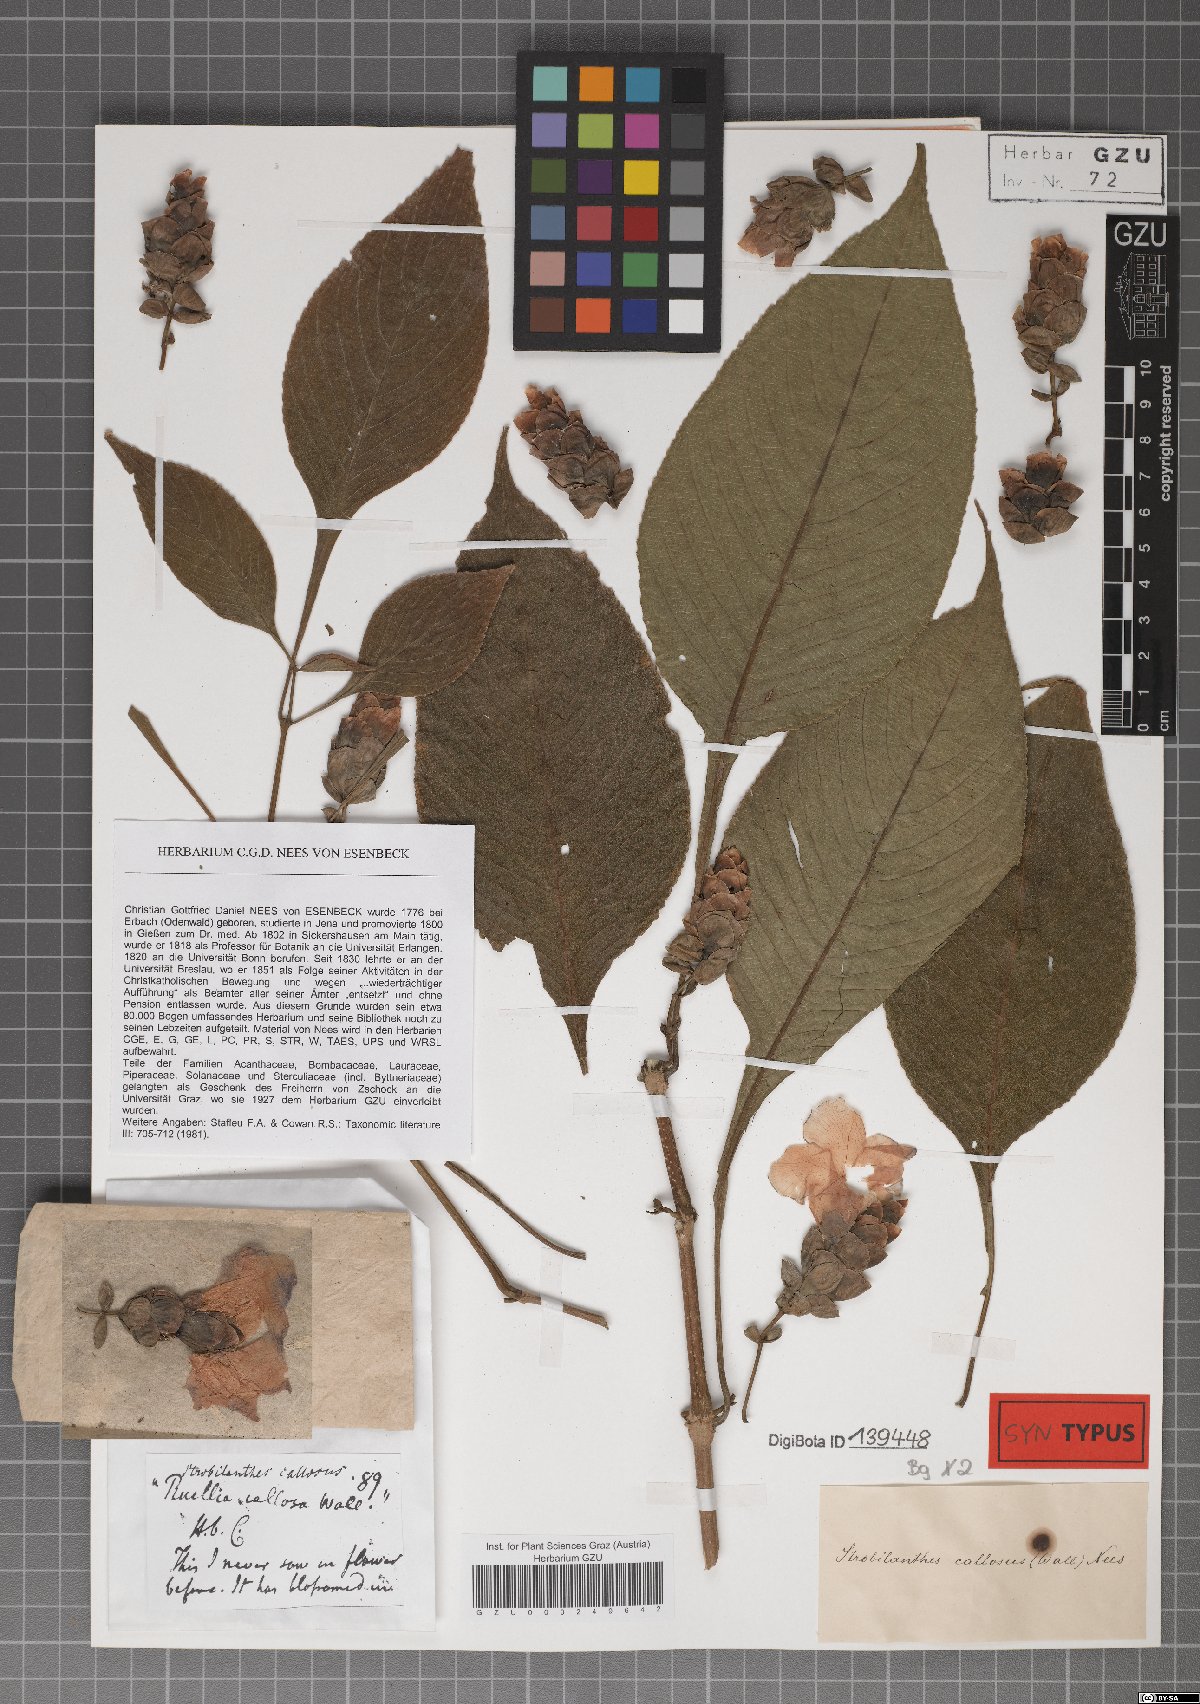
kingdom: Plantae
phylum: Tracheophyta
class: Magnoliopsida
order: Lamiales
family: Acanthaceae
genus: Strobilanthes
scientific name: Strobilanthes callosa
